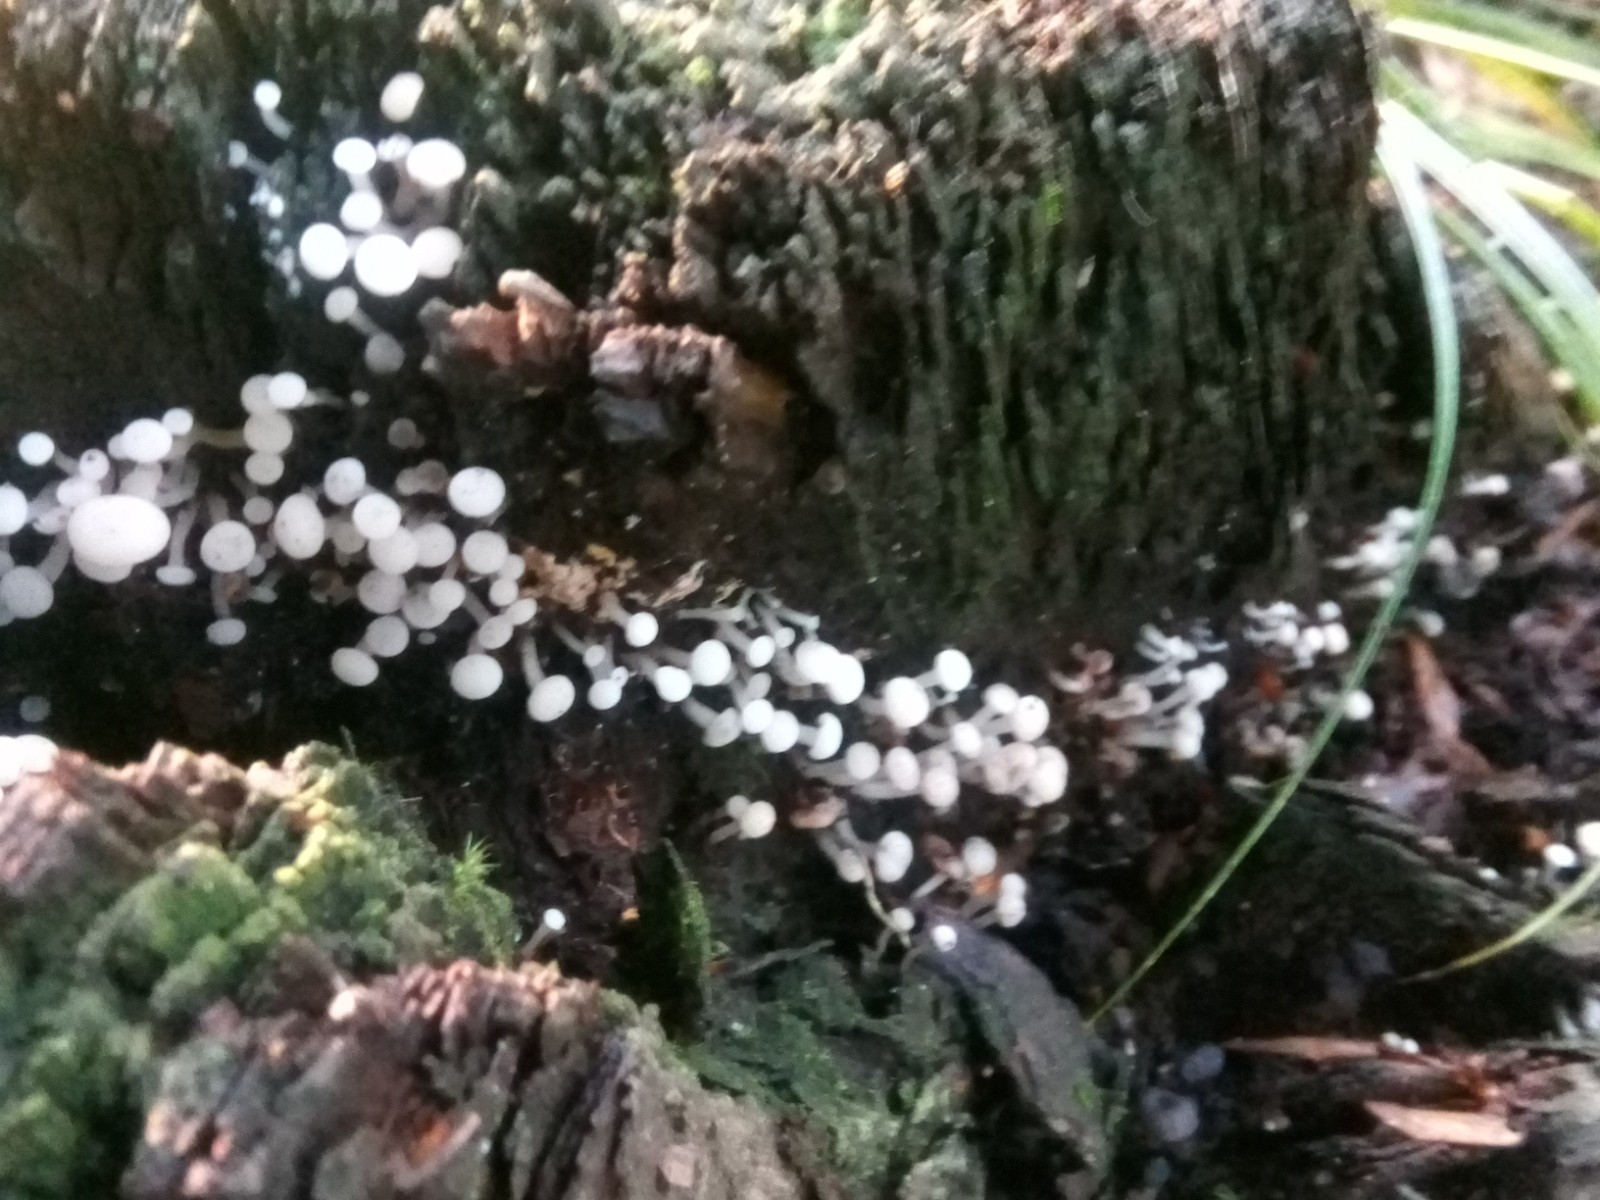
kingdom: Fungi
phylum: Ascomycota
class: Leotiomycetes
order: Helotiales
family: Tricladiaceae
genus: Cudoniella
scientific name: Cudoniella acicularis
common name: ege-dyndskive
